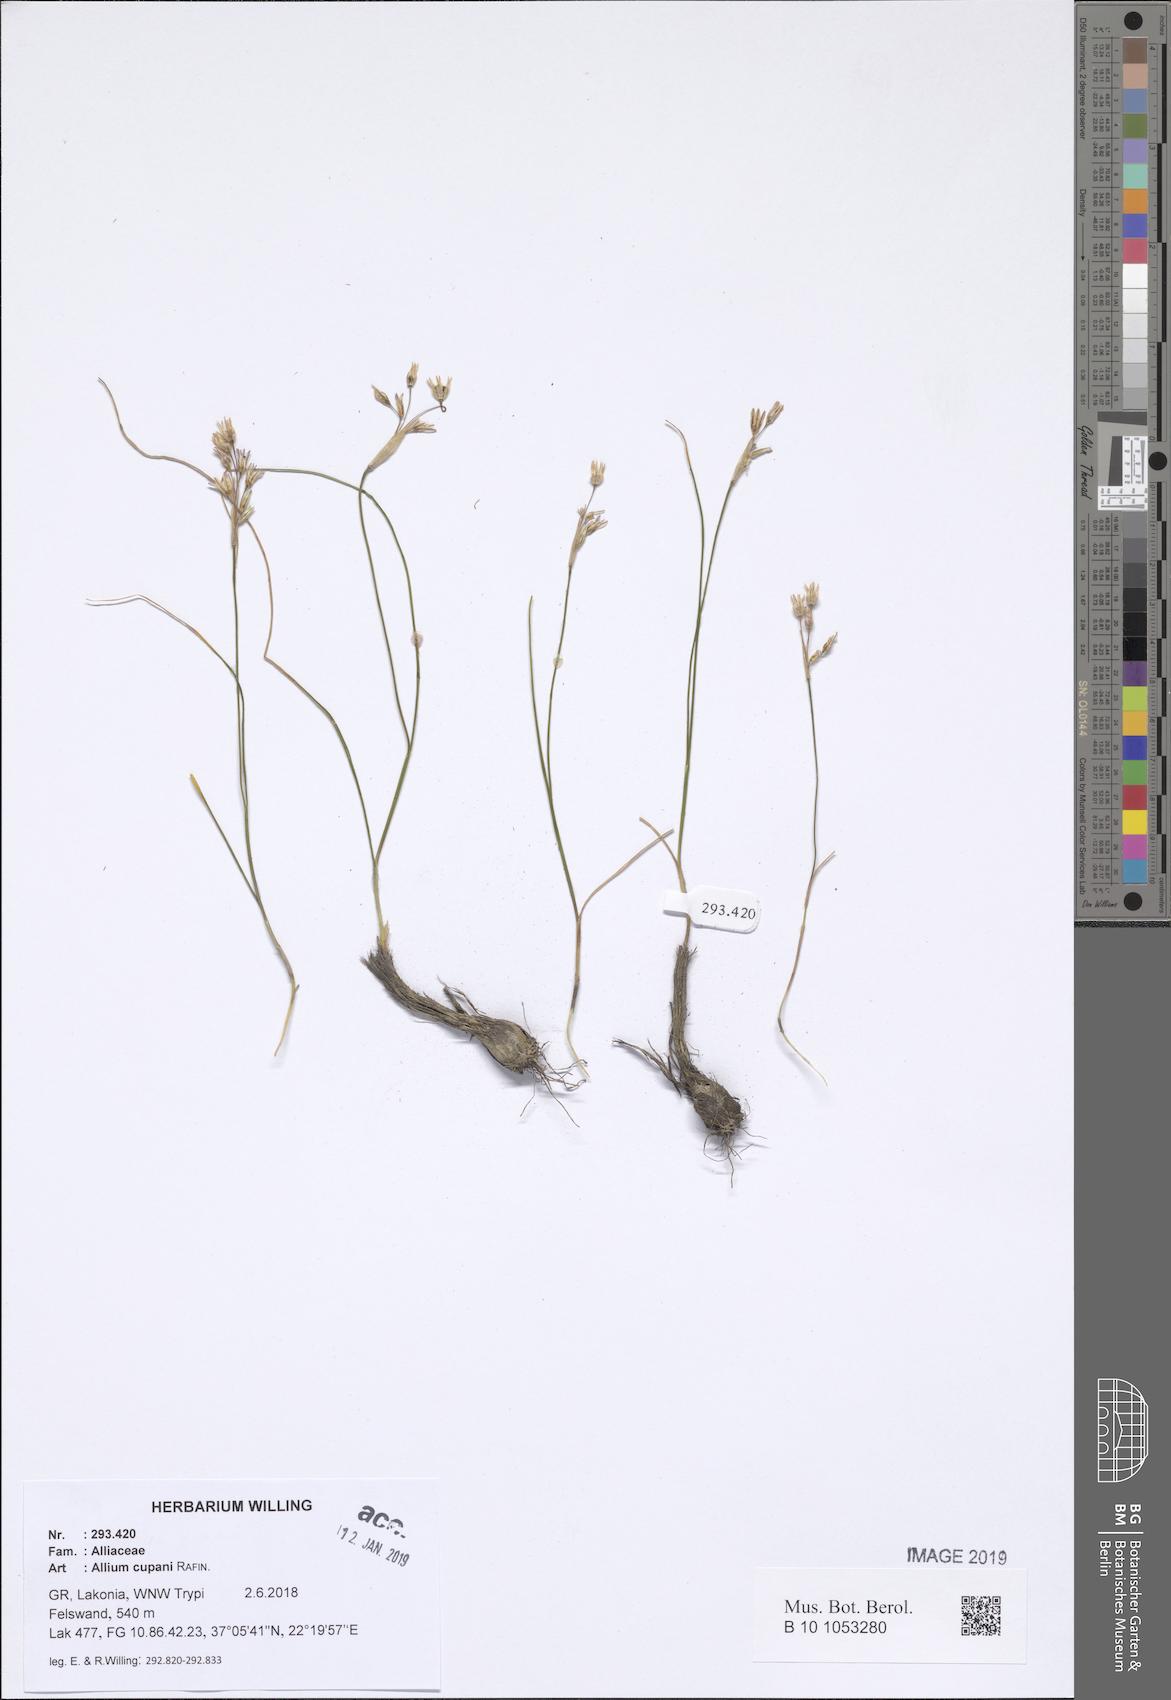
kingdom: Plantae
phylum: Tracheophyta
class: Liliopsida
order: Asparagales
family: Amaryllidaceae
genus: Allium
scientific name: Allium cupani
